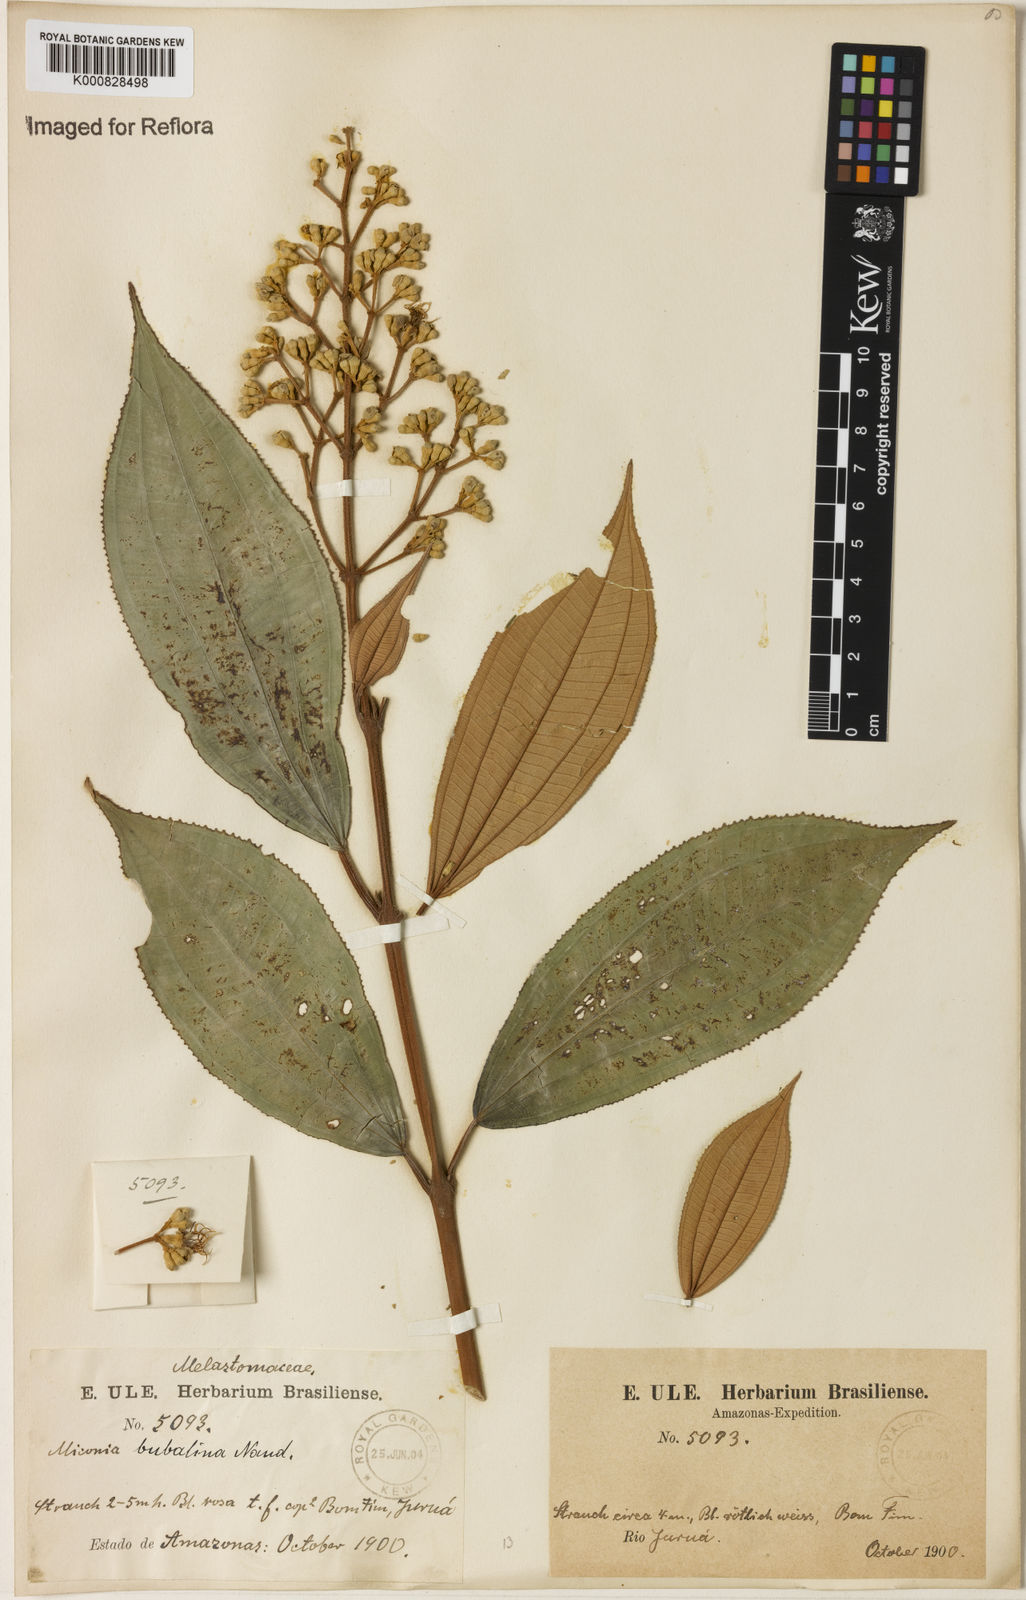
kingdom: Plantae
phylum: Tracheophyta
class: Magnoliopsida
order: Myrtales
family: Melastomataceae
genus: Miconia
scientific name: Miconia bubalina
